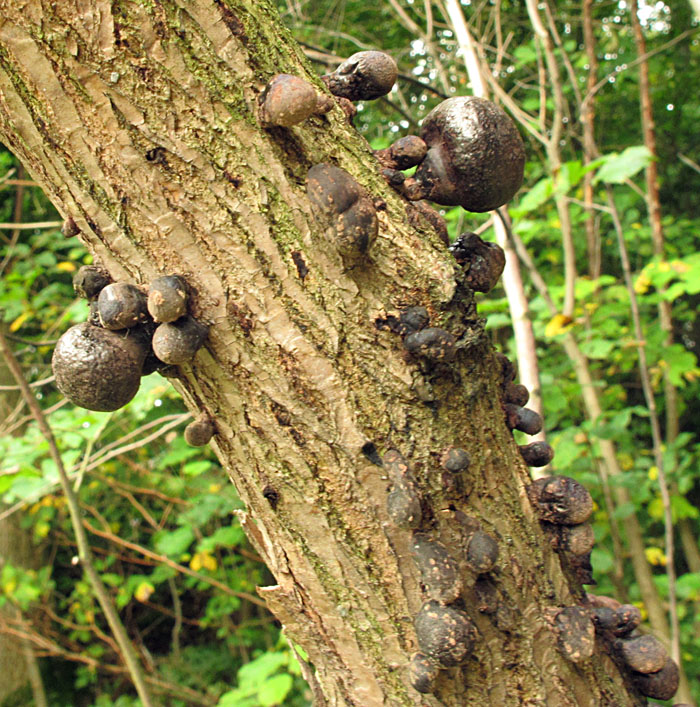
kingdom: Fungi
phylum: Ascomycota
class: Sordariomycetes
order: Xylariales
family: Hypoxylaceae
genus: Daldinia
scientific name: Daldinia vernicosa
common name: gele-bæltekugle
